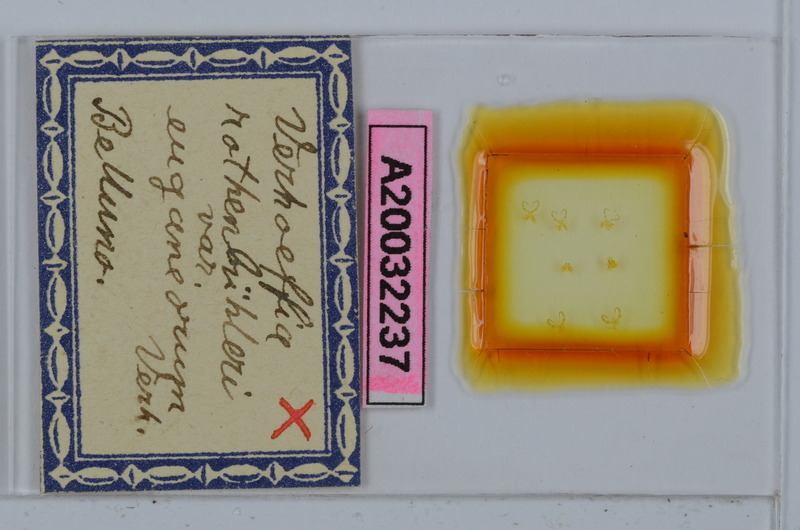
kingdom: Animalia
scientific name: Animalia
